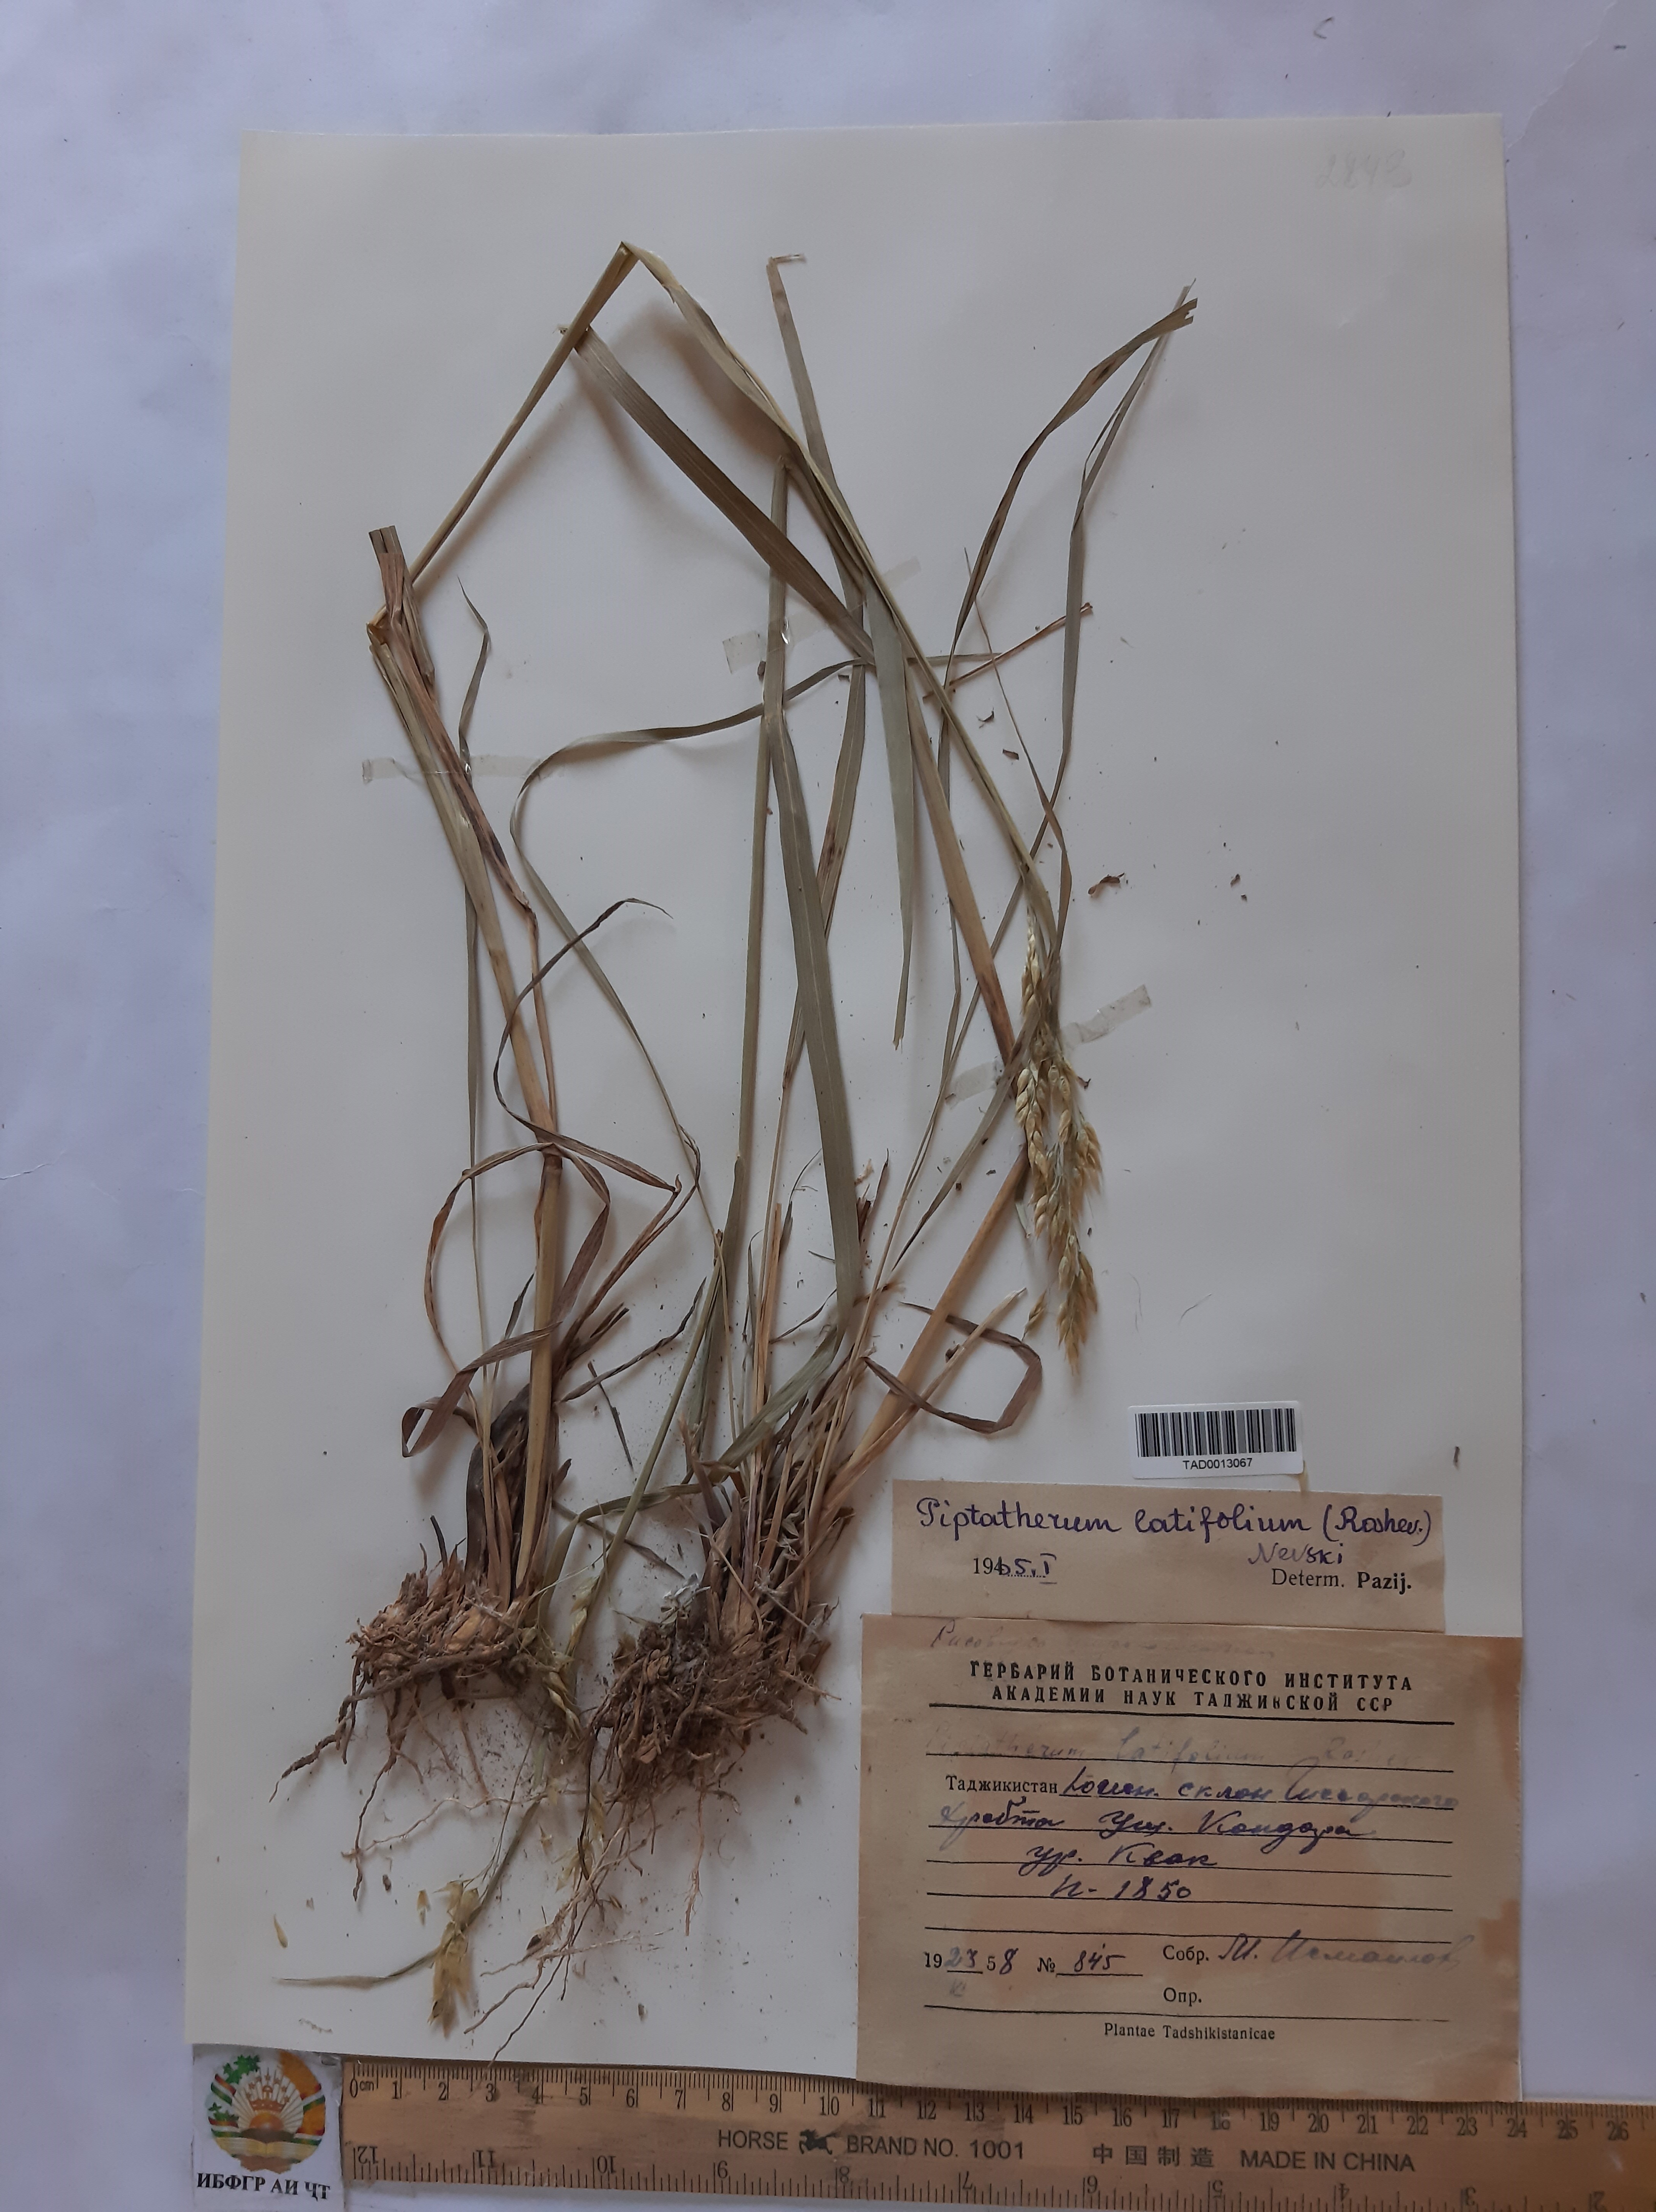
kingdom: Plantae
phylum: Tracheophyta
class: Liliopsida
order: Poales
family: Poaceae
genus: Piptatherum
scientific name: Piptatherum laterale
